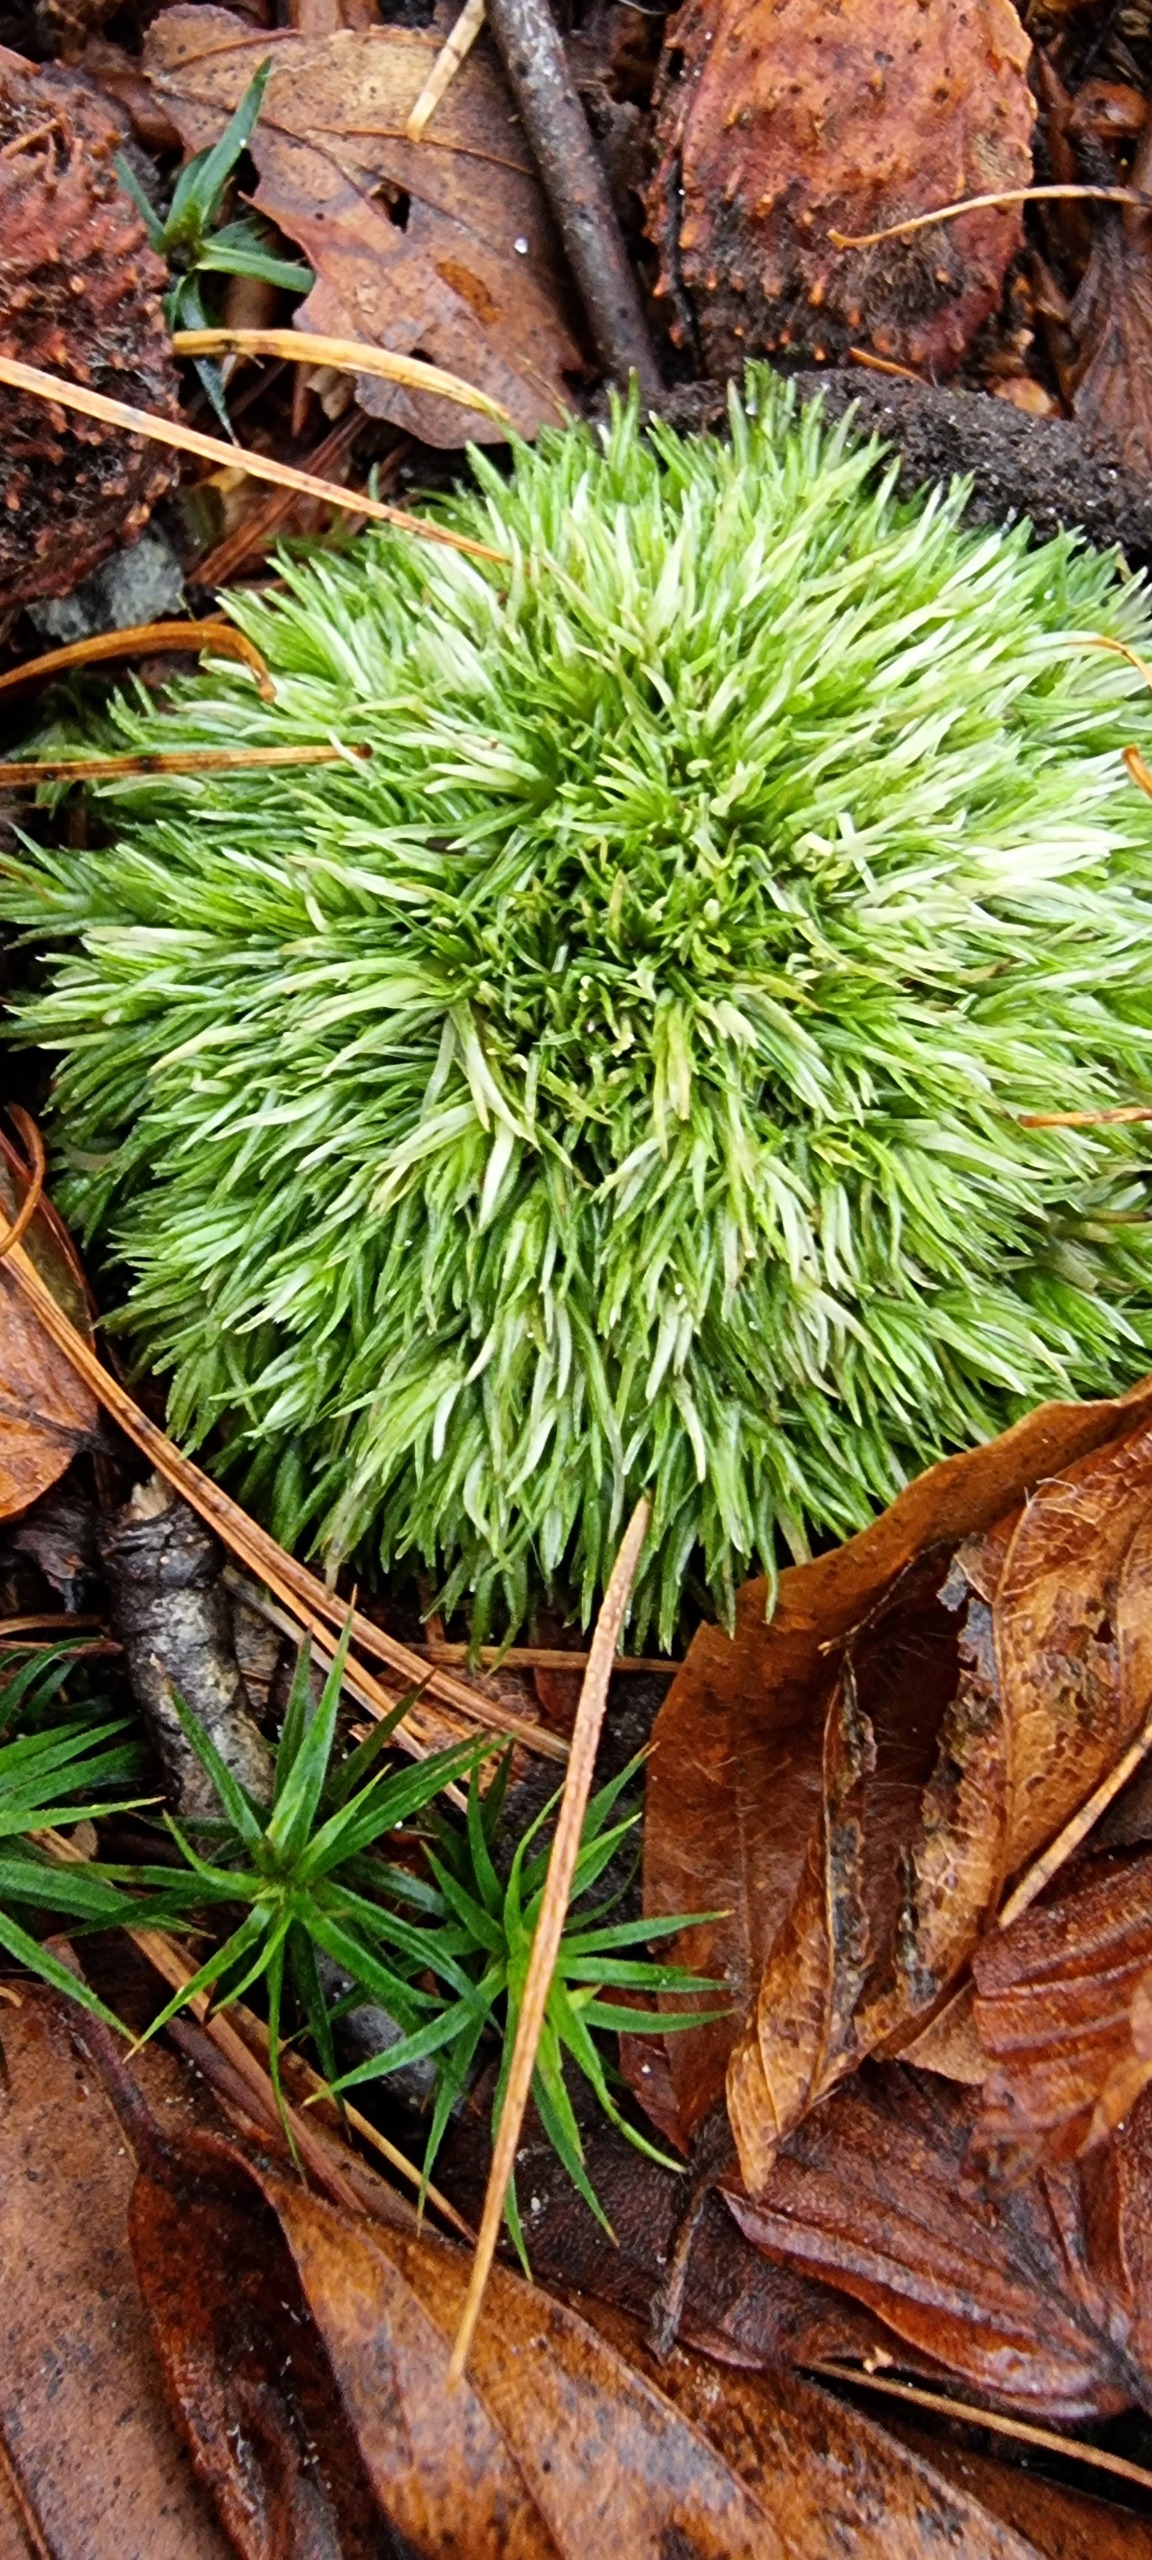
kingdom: Plantae
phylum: Bryophyta
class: Bryopsida
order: Dicranales
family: Leucobryaceae
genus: Leucobryum
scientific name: Leucobryum glaucum
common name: Almindelig hvidmos
